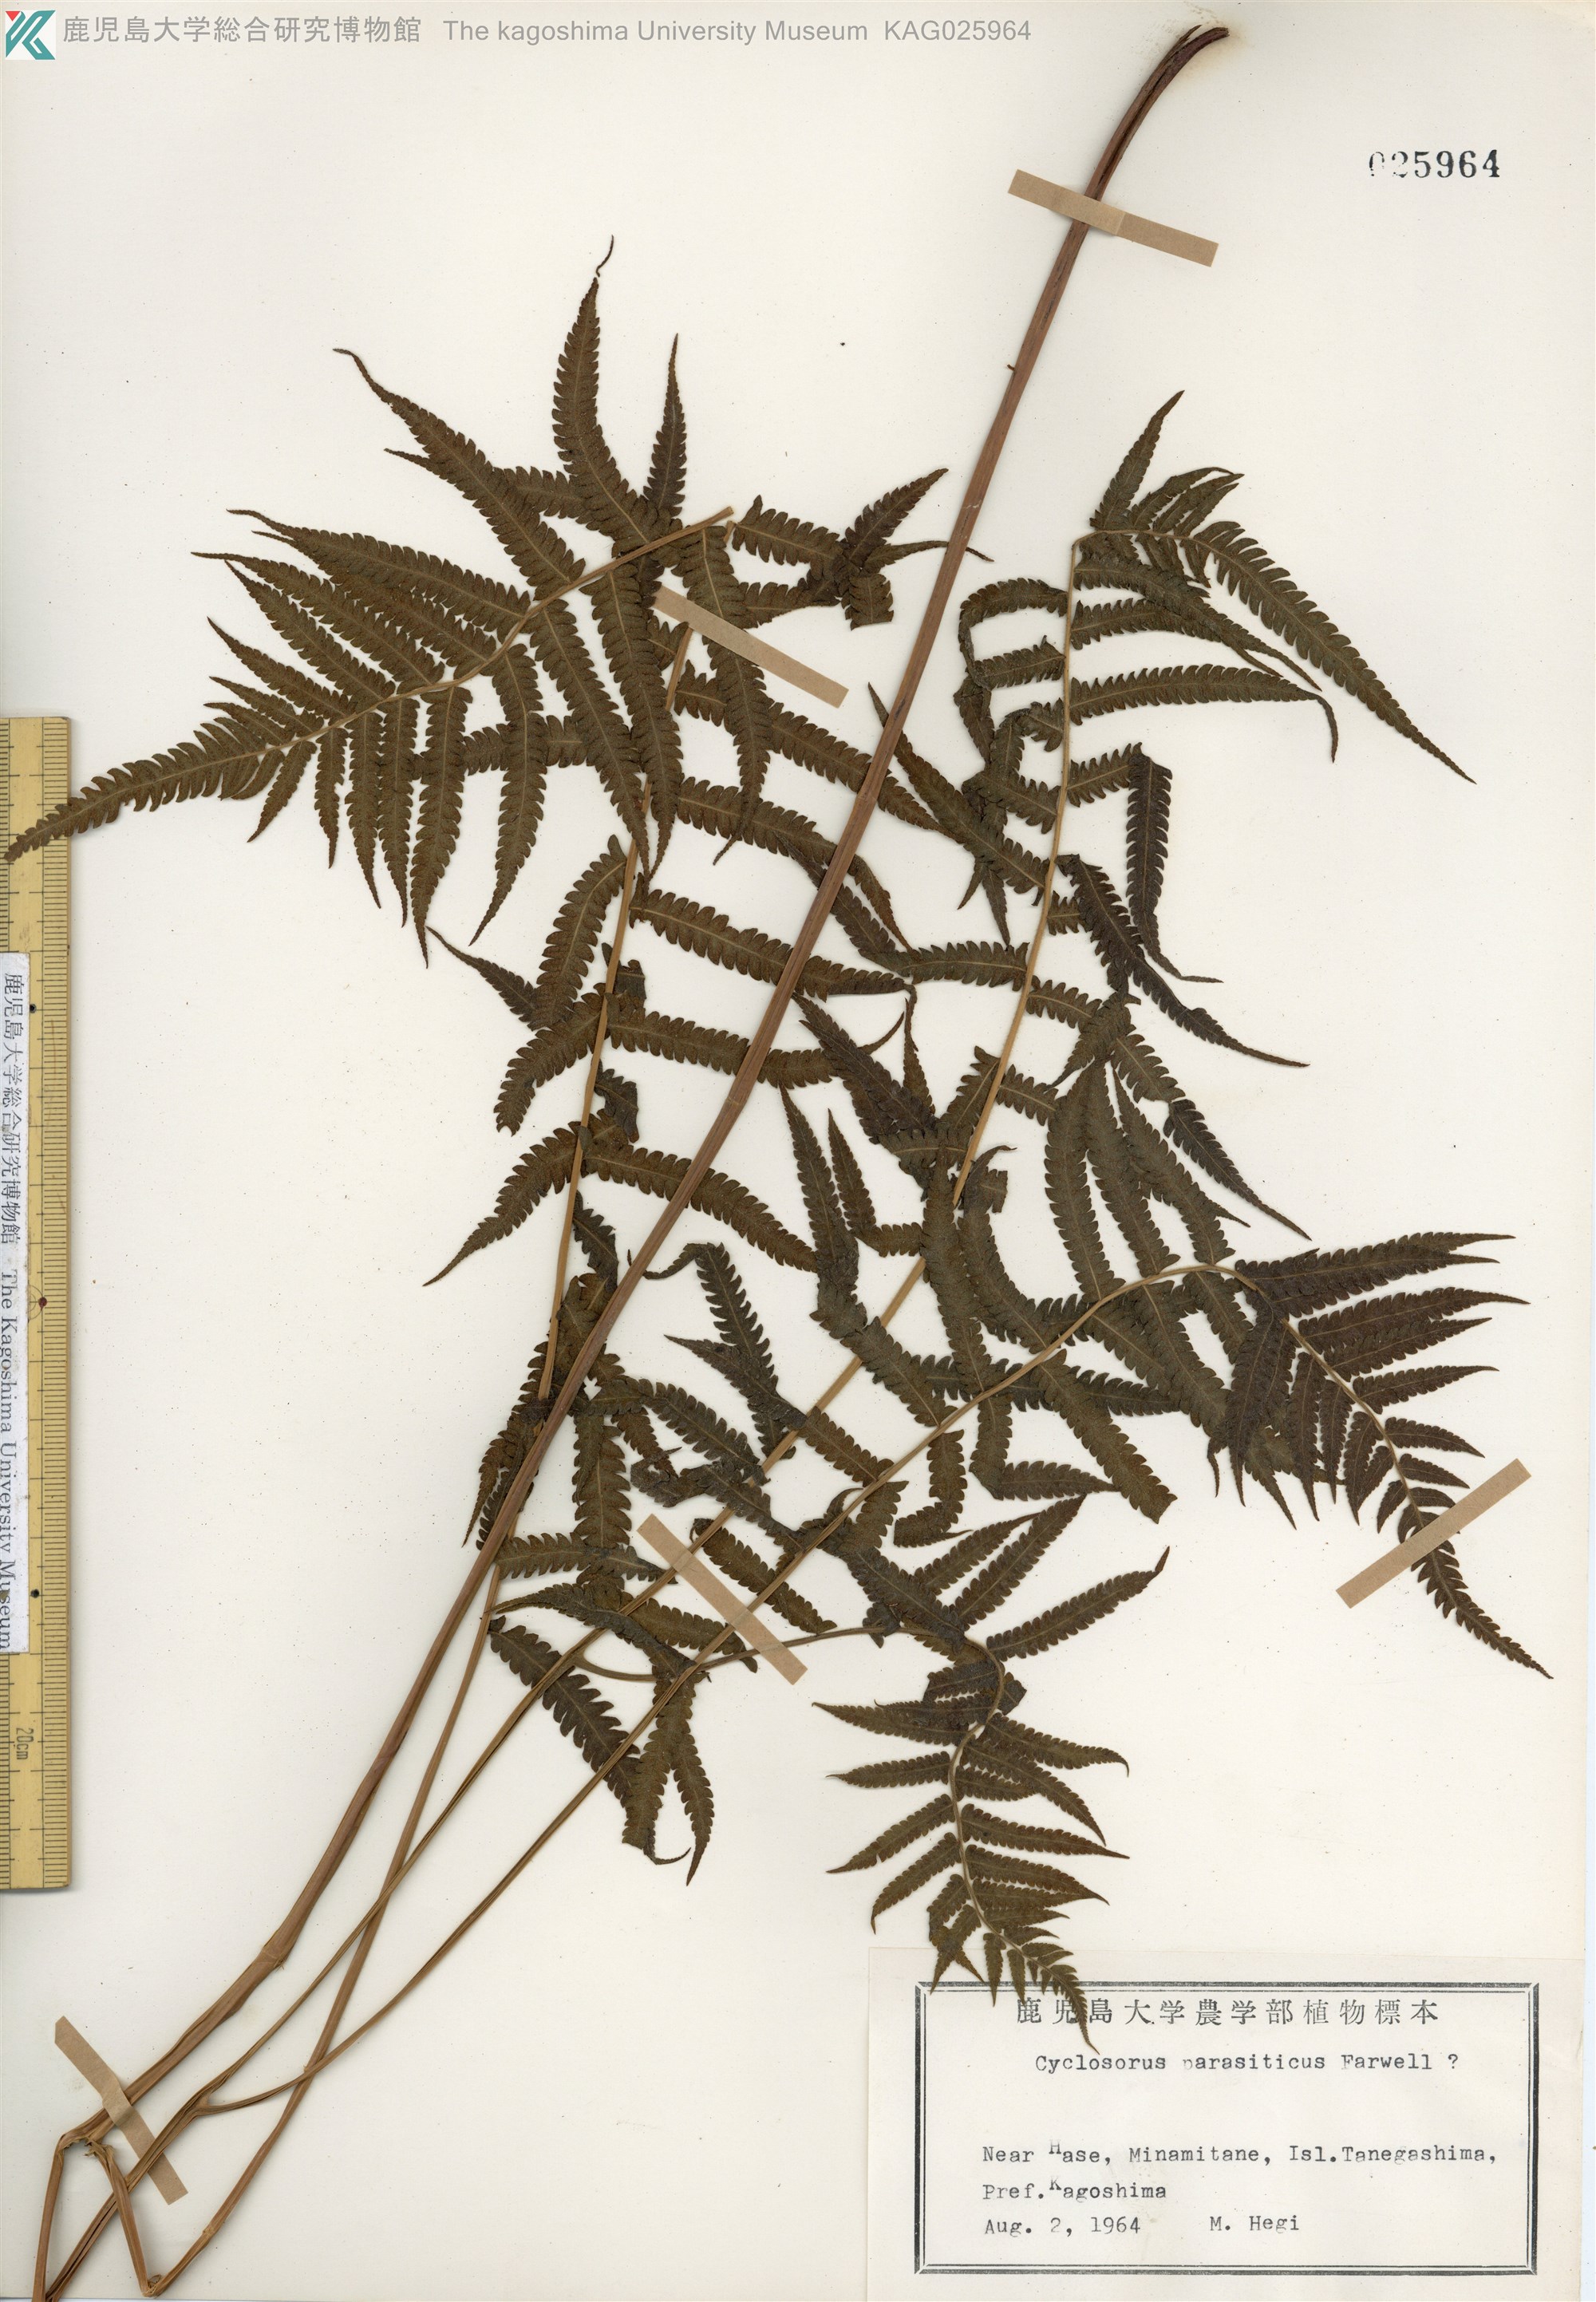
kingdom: Plantae
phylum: Tracheophyta
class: Polypodiopsida
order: Polypodiales
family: Thelypteridaceae
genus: Christella
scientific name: Christella parasitica
